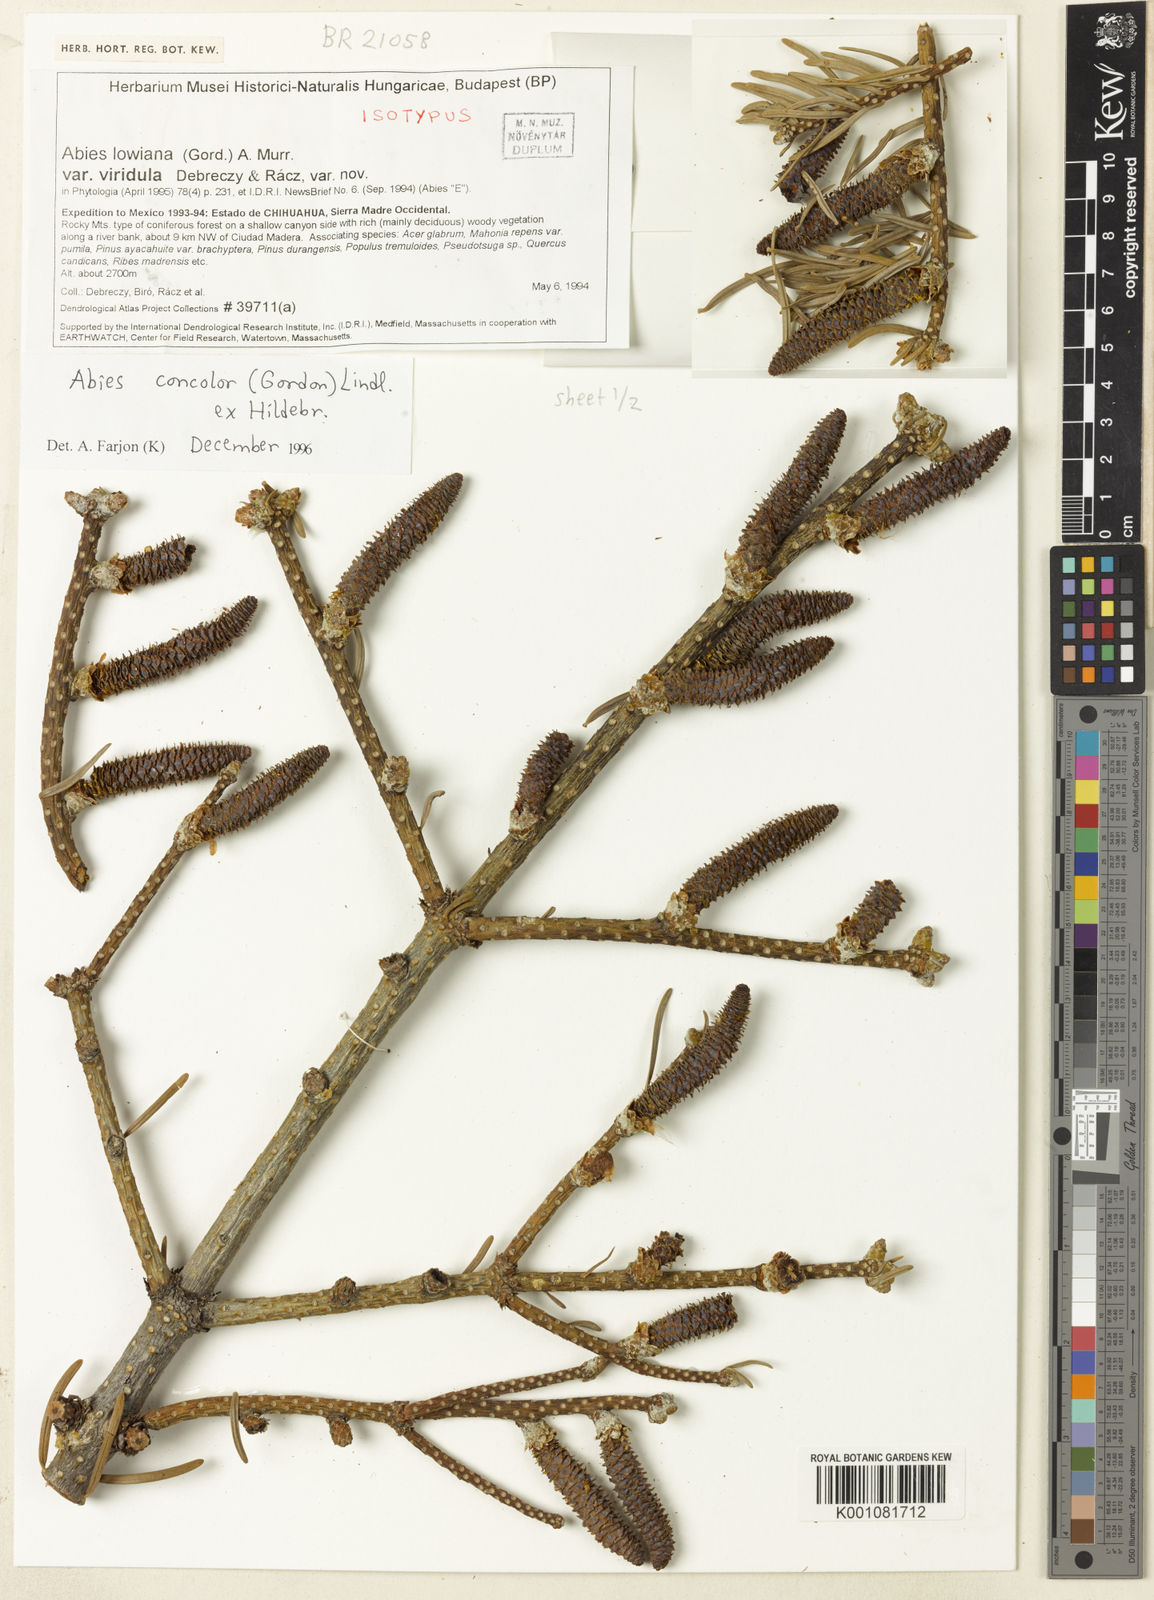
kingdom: Plantae
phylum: Tracheophyta
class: Pinopsida
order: Pinales
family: Pinaceae
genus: Abies
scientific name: Abies concolor
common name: Colorado fir
